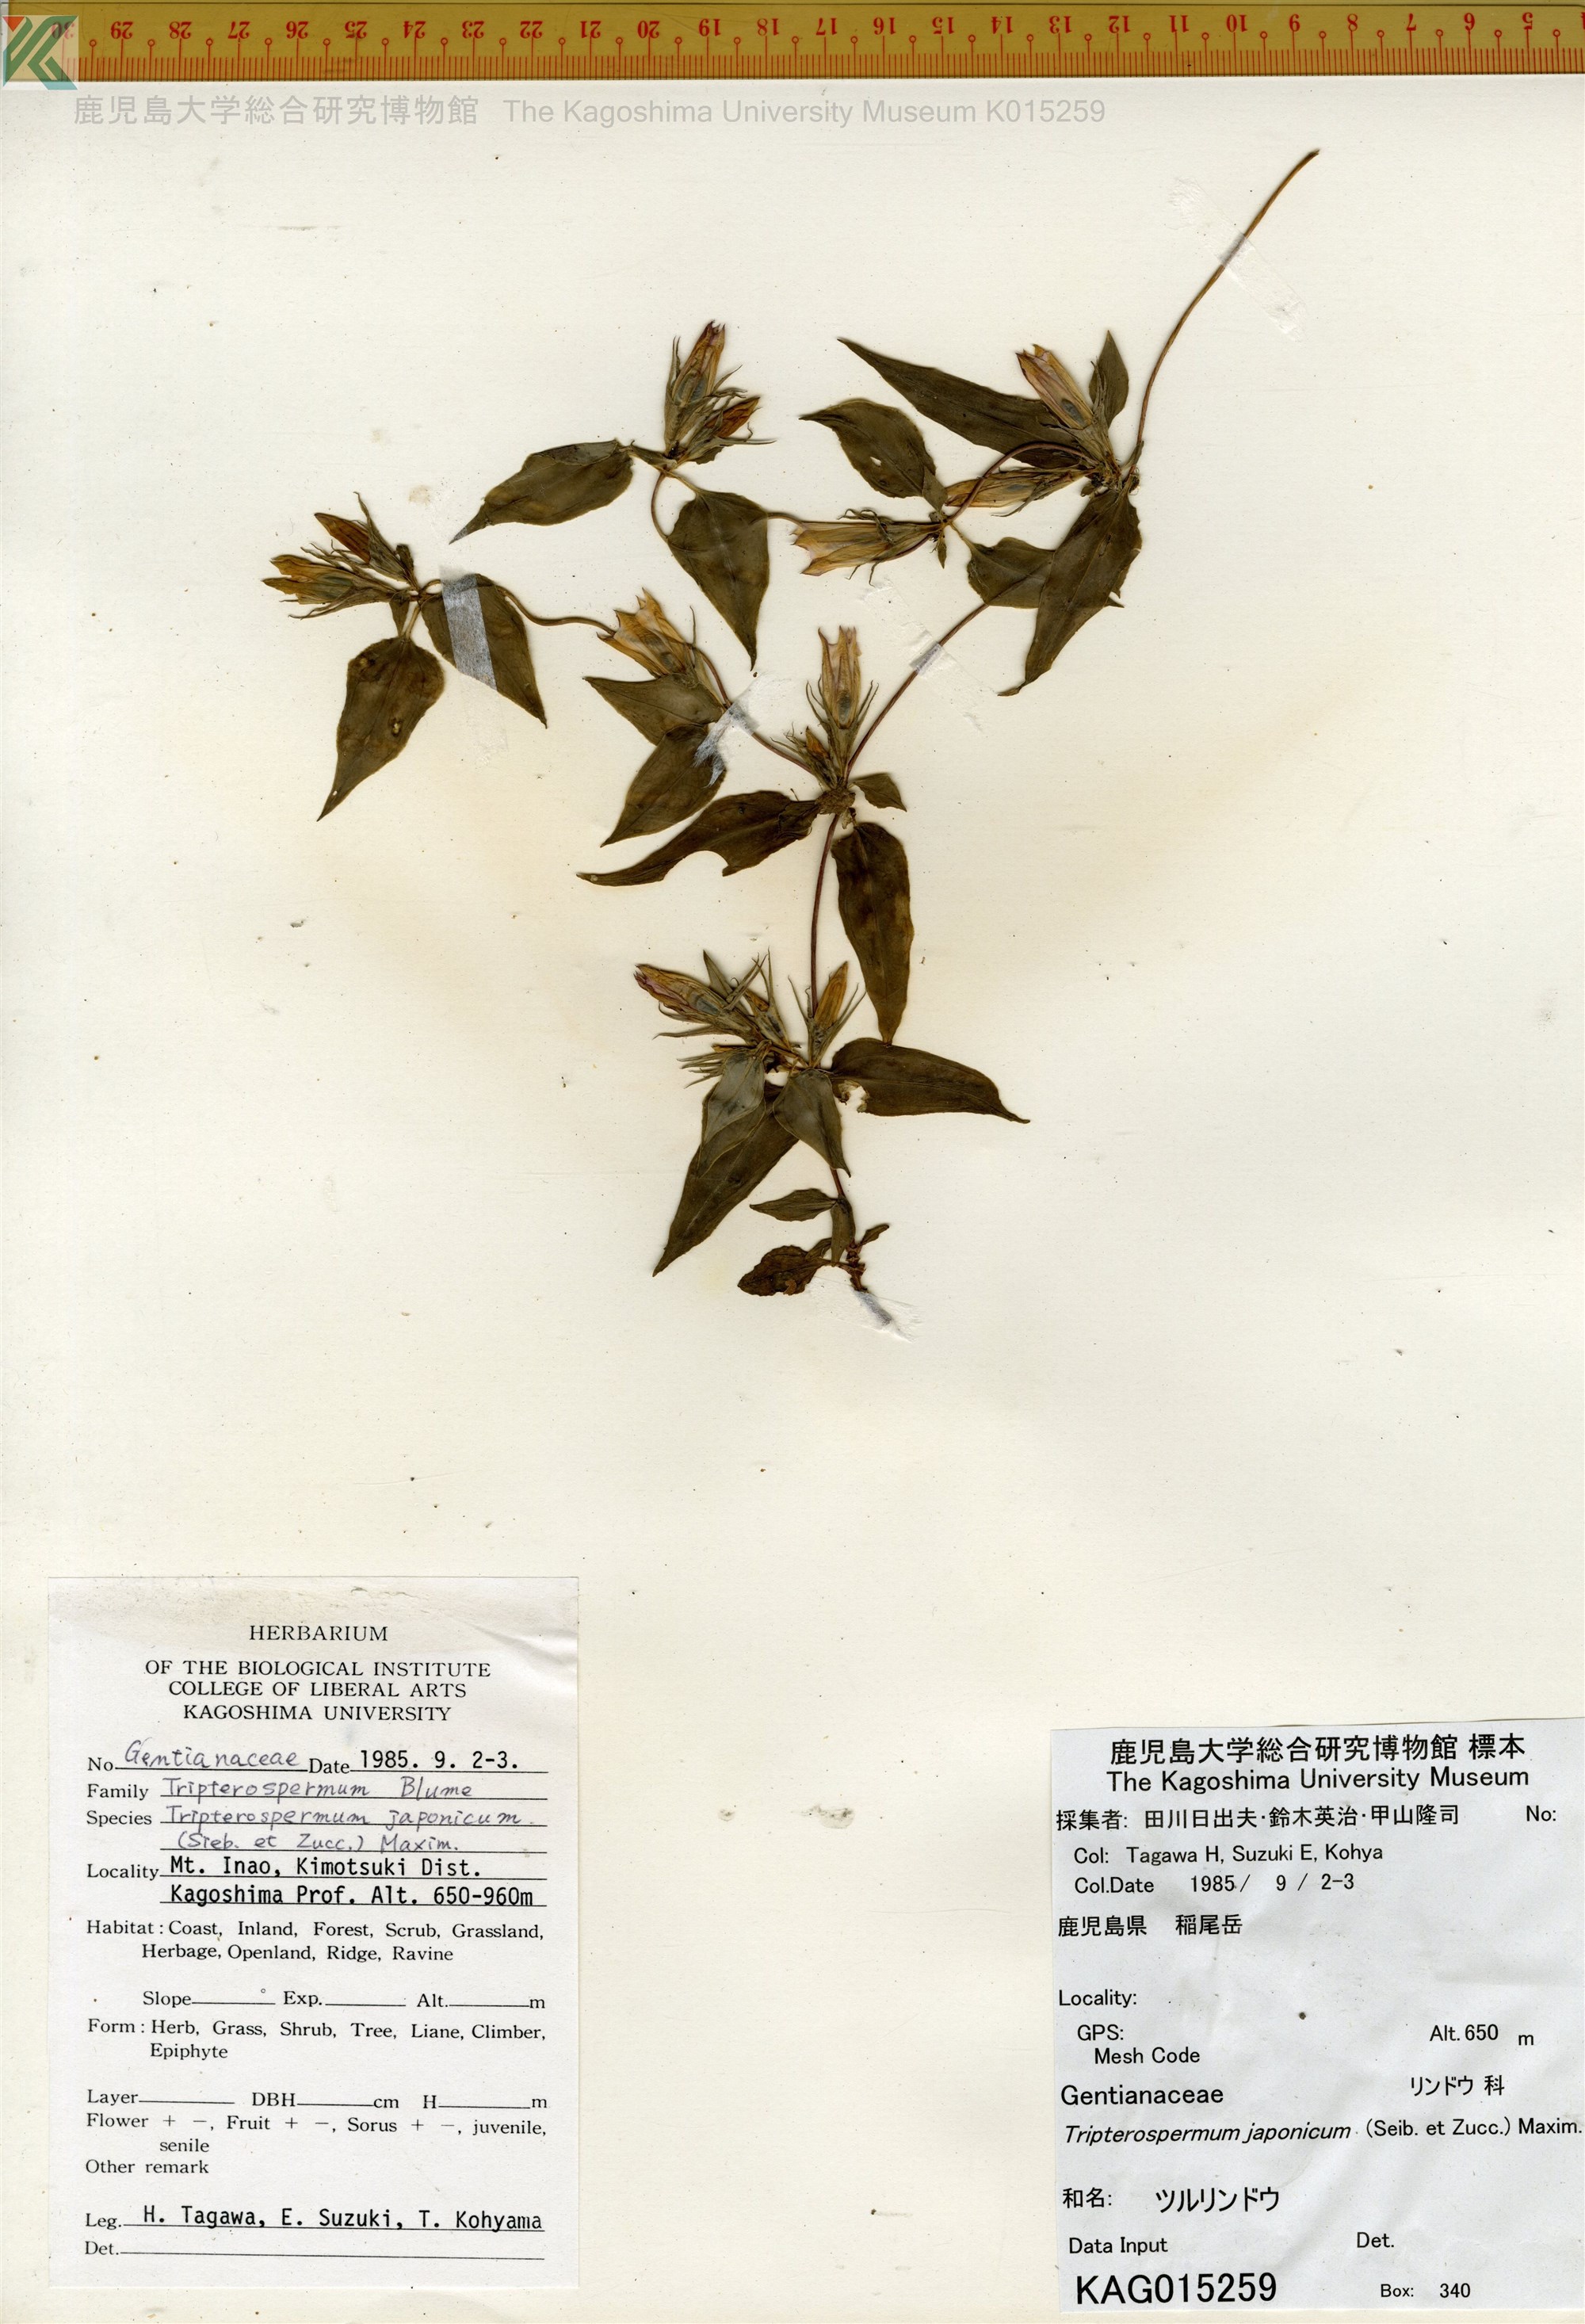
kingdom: Plantae
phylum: Tracheophyta
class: Magnoliopsida
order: Gentianales
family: Gentianaceae
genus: Tripterospermum
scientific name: Tripterospermum trinervium
